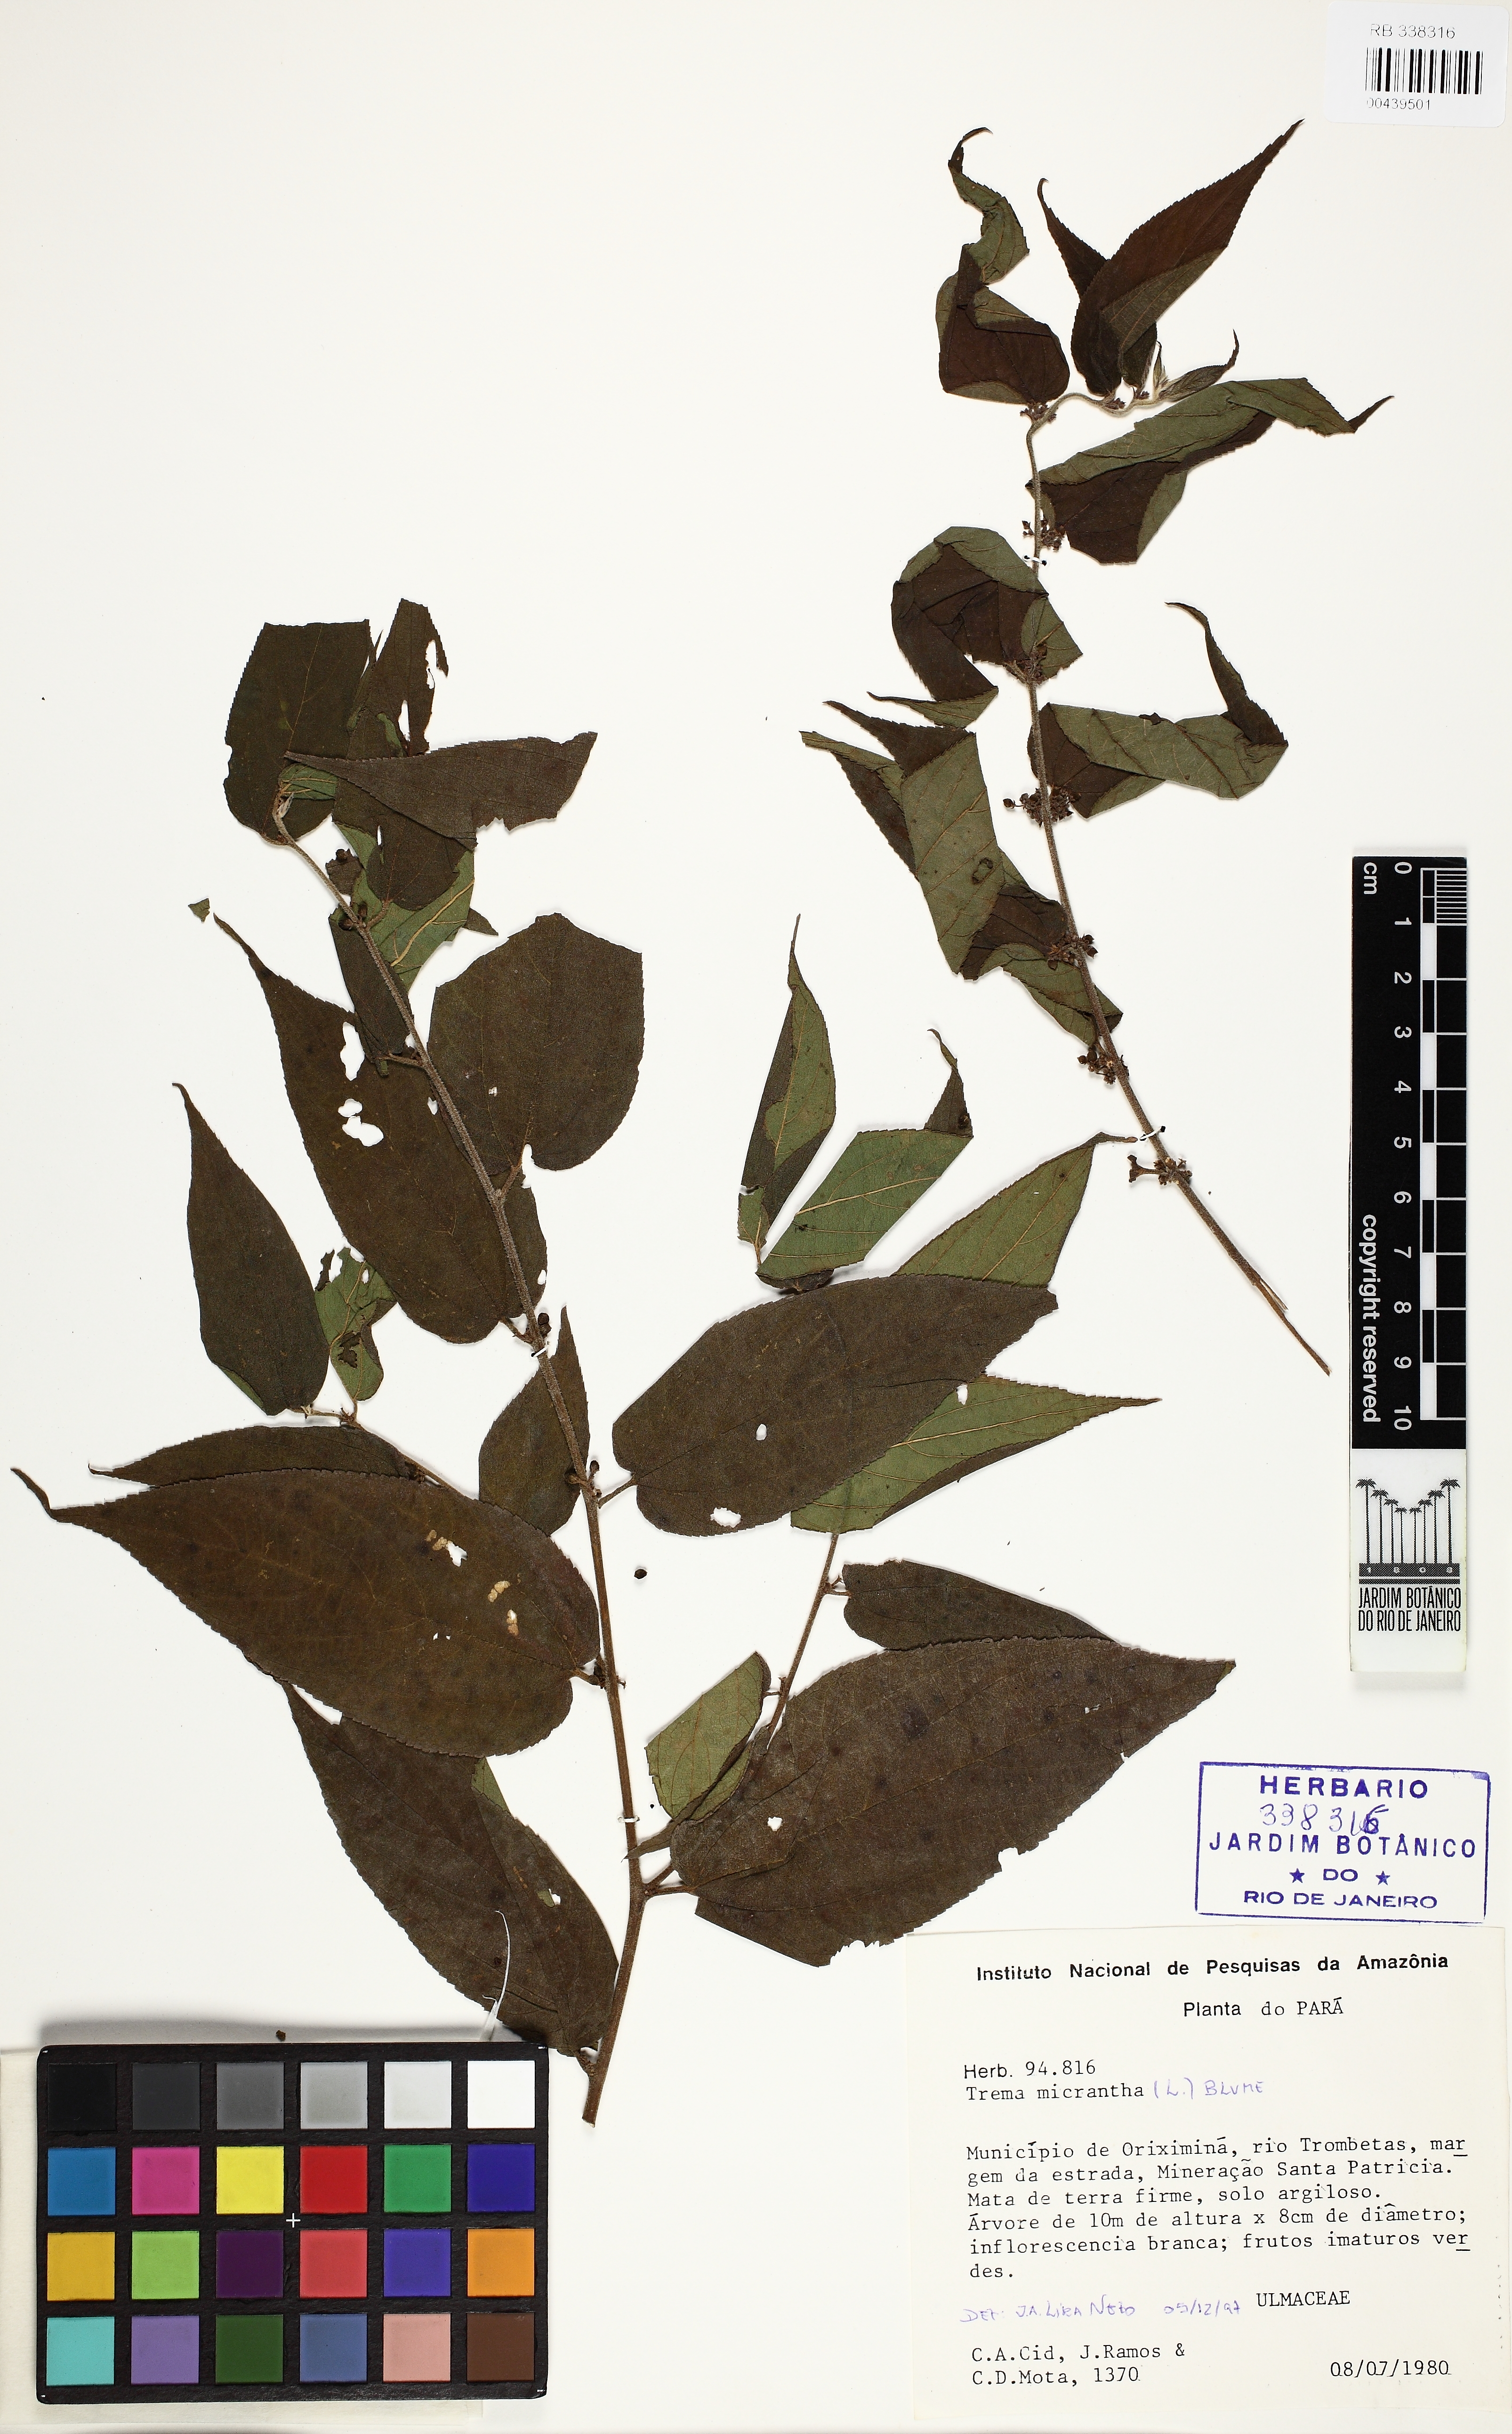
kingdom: Plantae
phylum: Tracheophyta
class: Magnoliopsida
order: Rosales
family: Cannabaceae
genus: Trema
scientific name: Trema micranthum
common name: Jamaican nettletree
